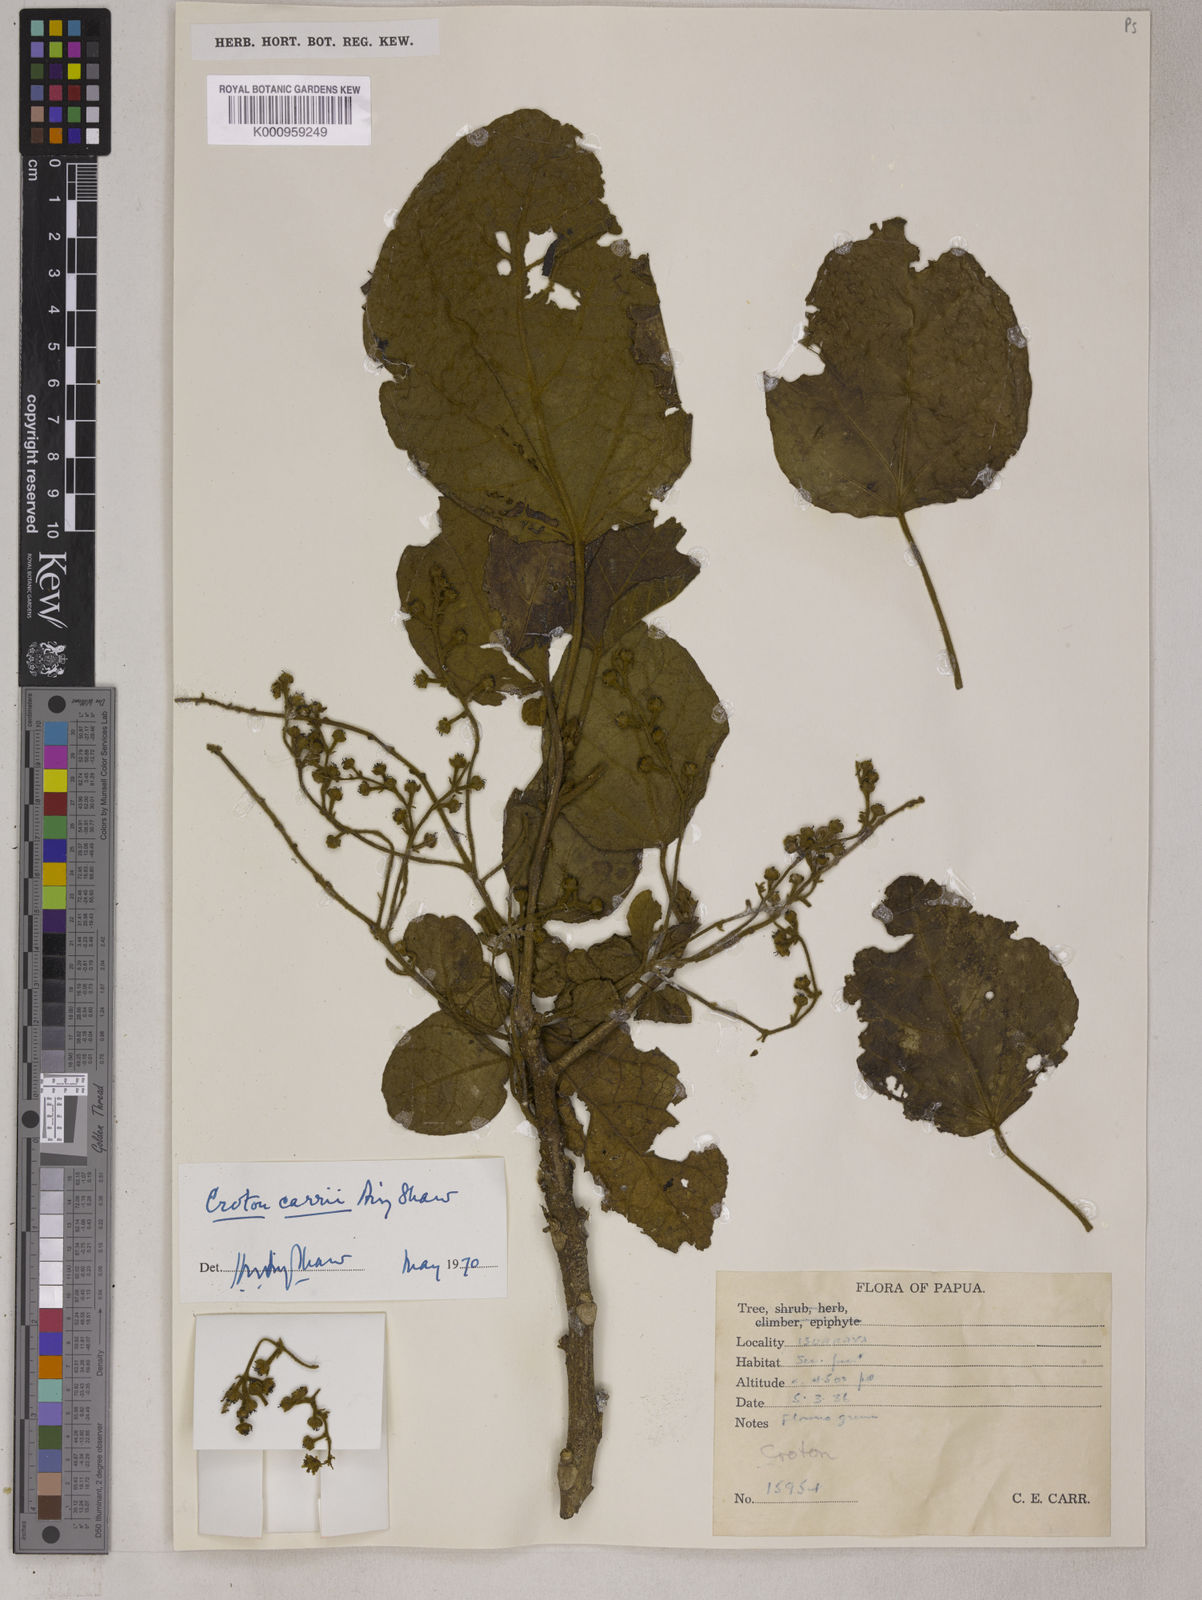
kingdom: Plantae
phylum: Tracheophyta
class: Magnoliopsida
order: Malpighiales
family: Euphorbiaceae
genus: Croton
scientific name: Croton carrii
